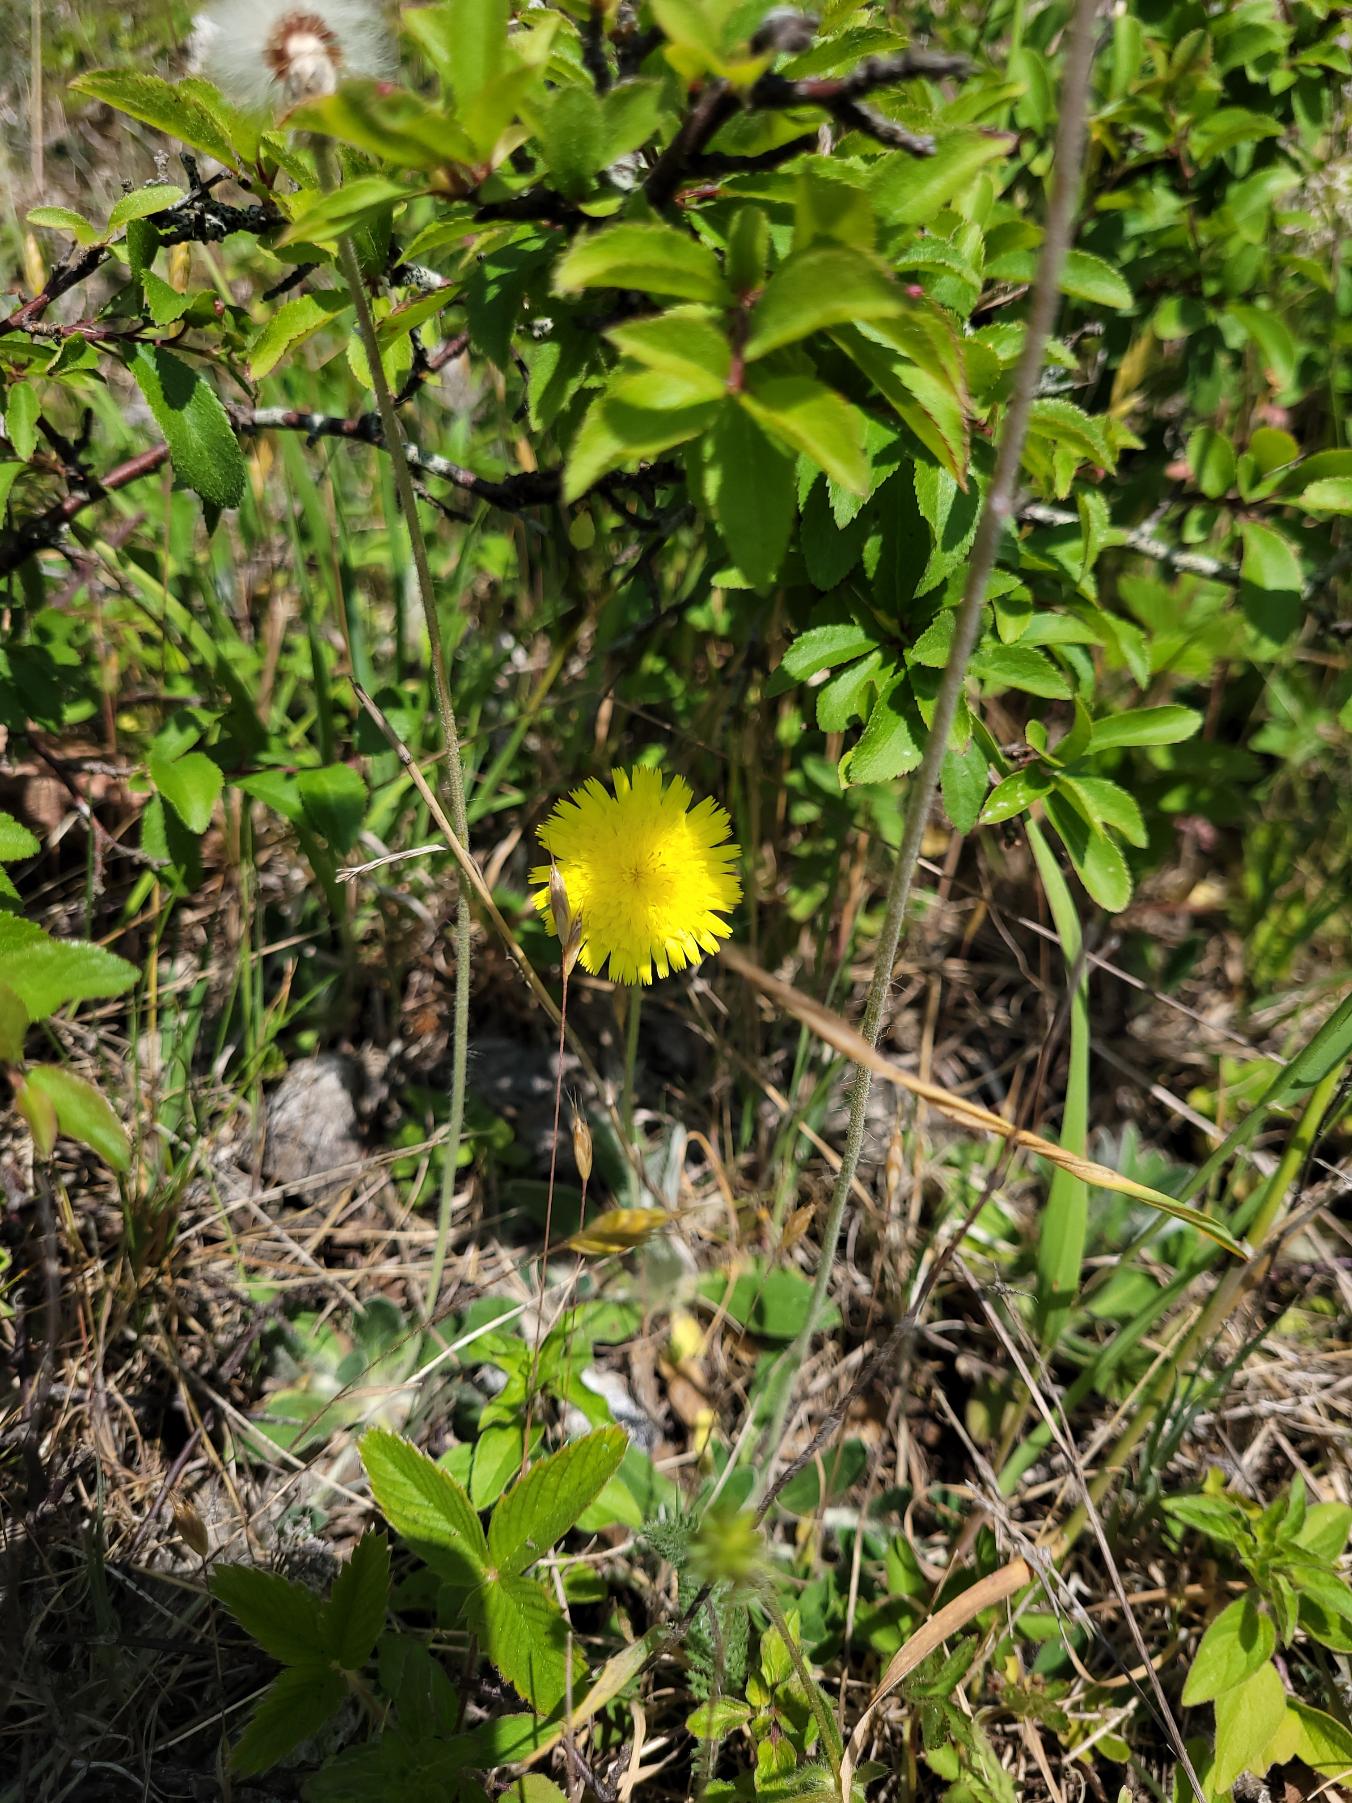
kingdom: Plantae
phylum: Tracheophyta
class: Magnoliopsida
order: Asterales
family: Asteraceae
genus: Pilosella
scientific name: Pilosella officinarum
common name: Håret høgeurt
